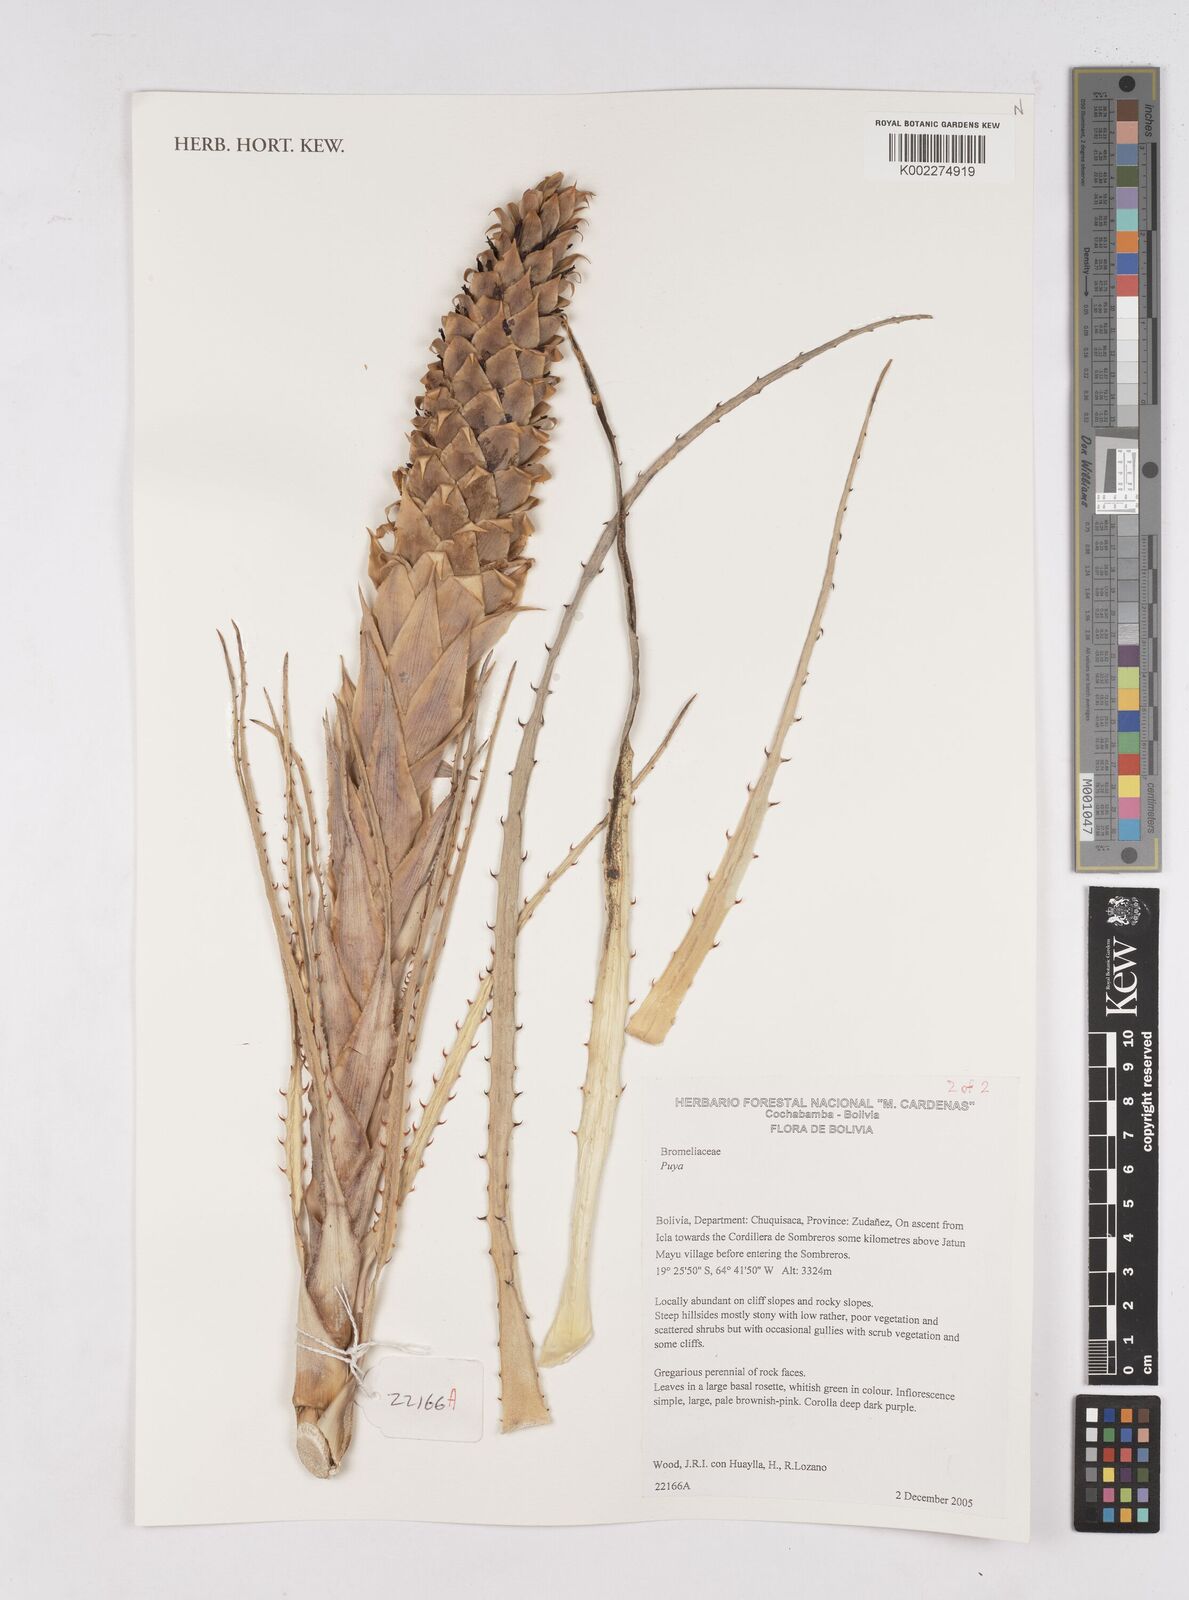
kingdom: Plantae
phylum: Tracheophyta
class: Liliopsida
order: Poales
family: Bromeliaceae
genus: Puya
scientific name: Puya
